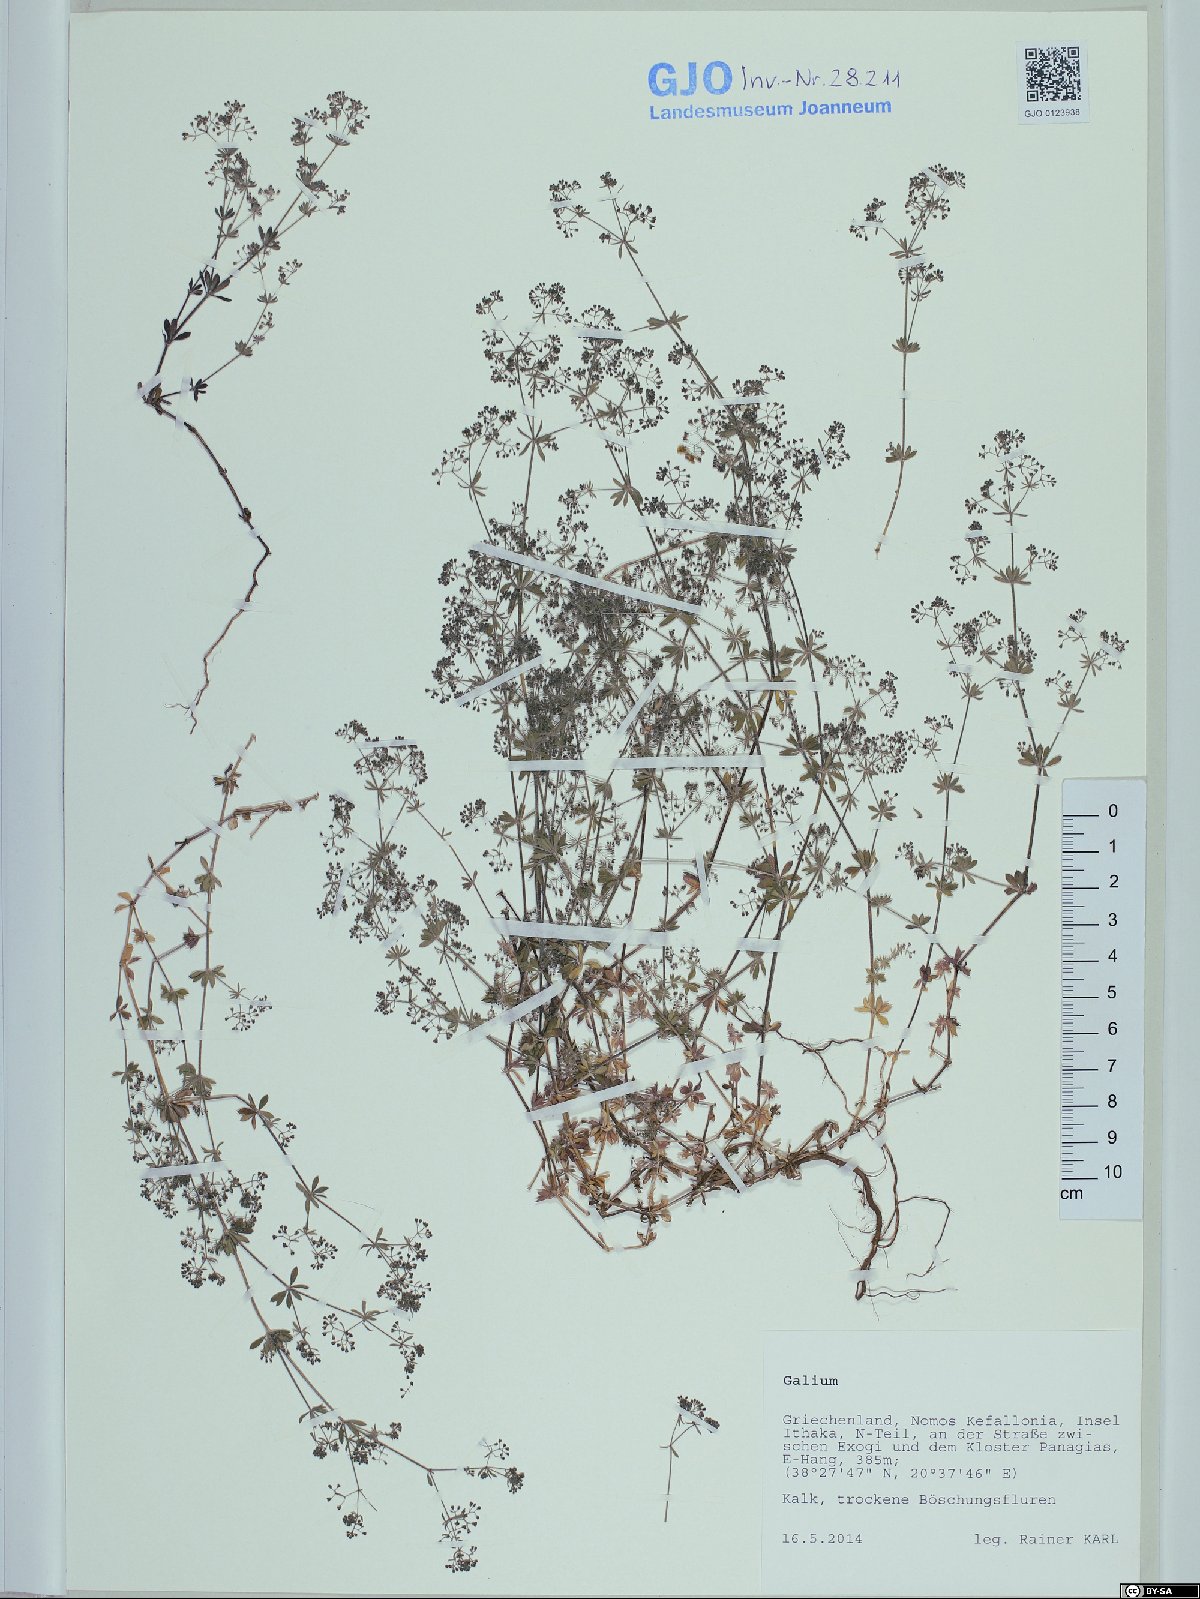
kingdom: Plantae
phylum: Tracheophyta
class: Magnoliopsida
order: Gentianales
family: Rubiaceae
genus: Galium
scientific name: Galium
